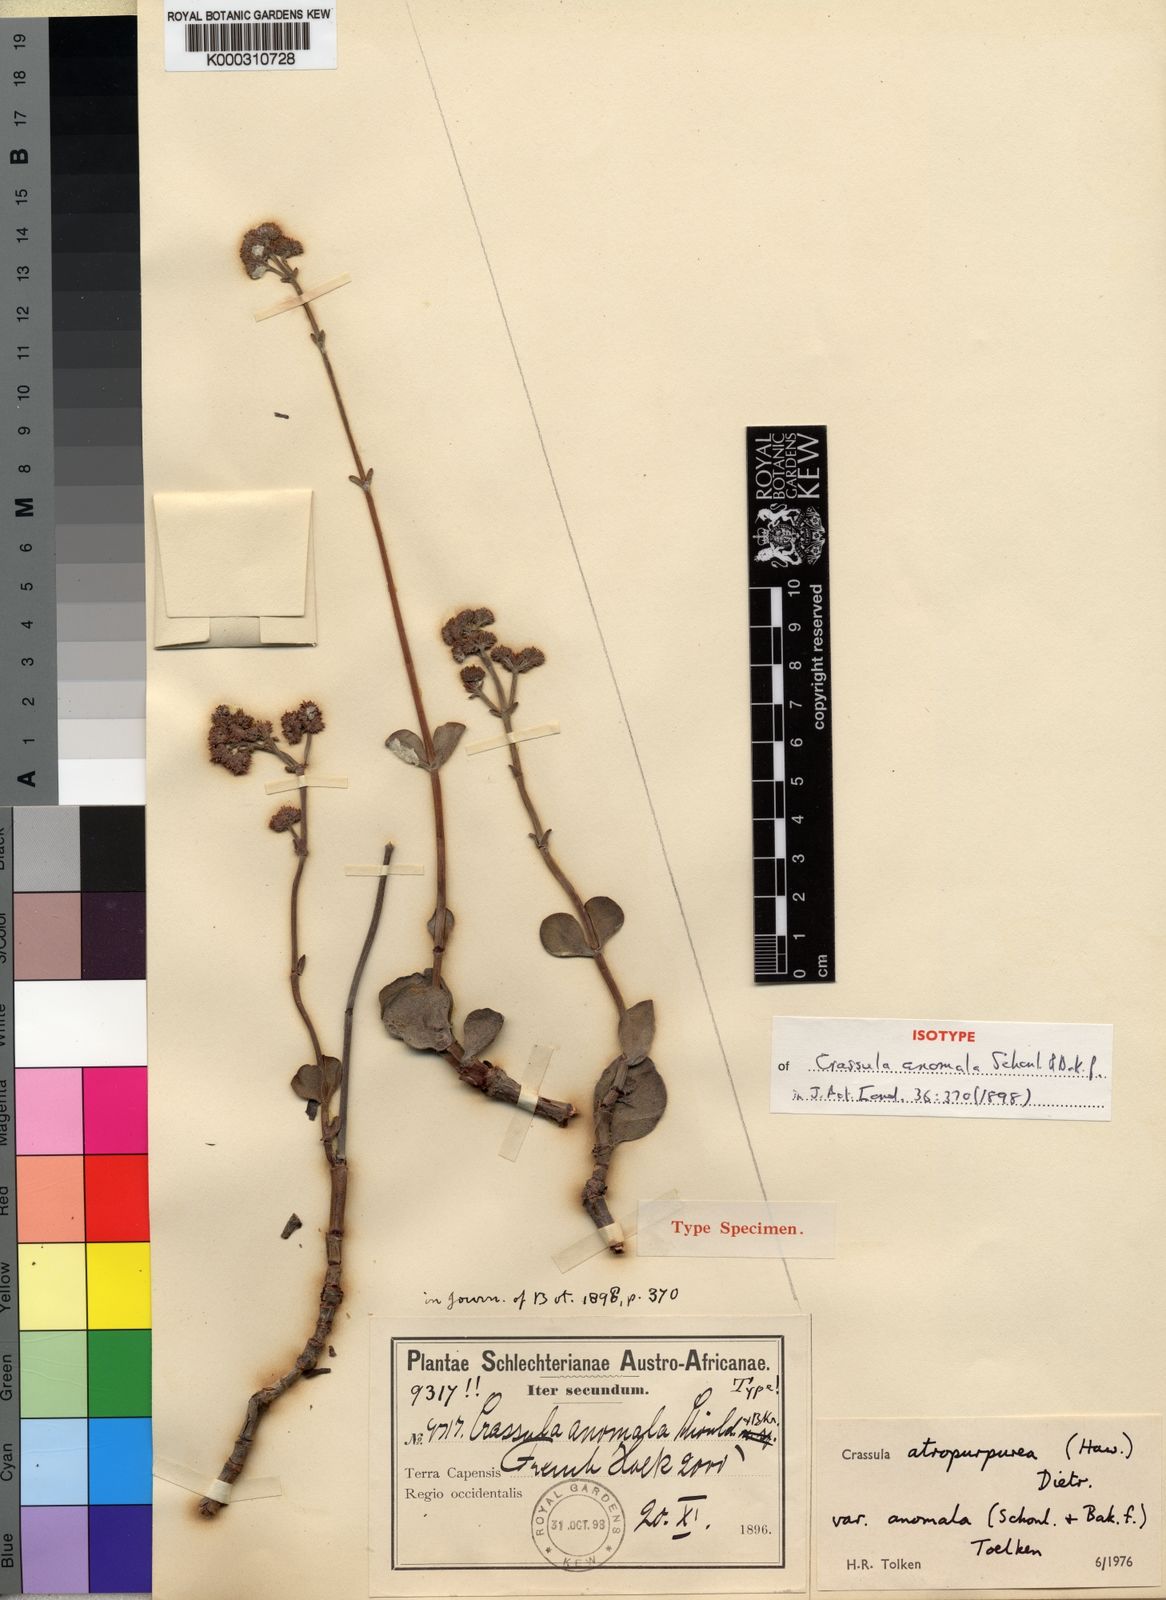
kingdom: Plantae
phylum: Tracheophyta
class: Magnoliopsida
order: Saxifragales
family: Crassulaceae
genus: Crassula
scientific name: Crassula atropurpurea
